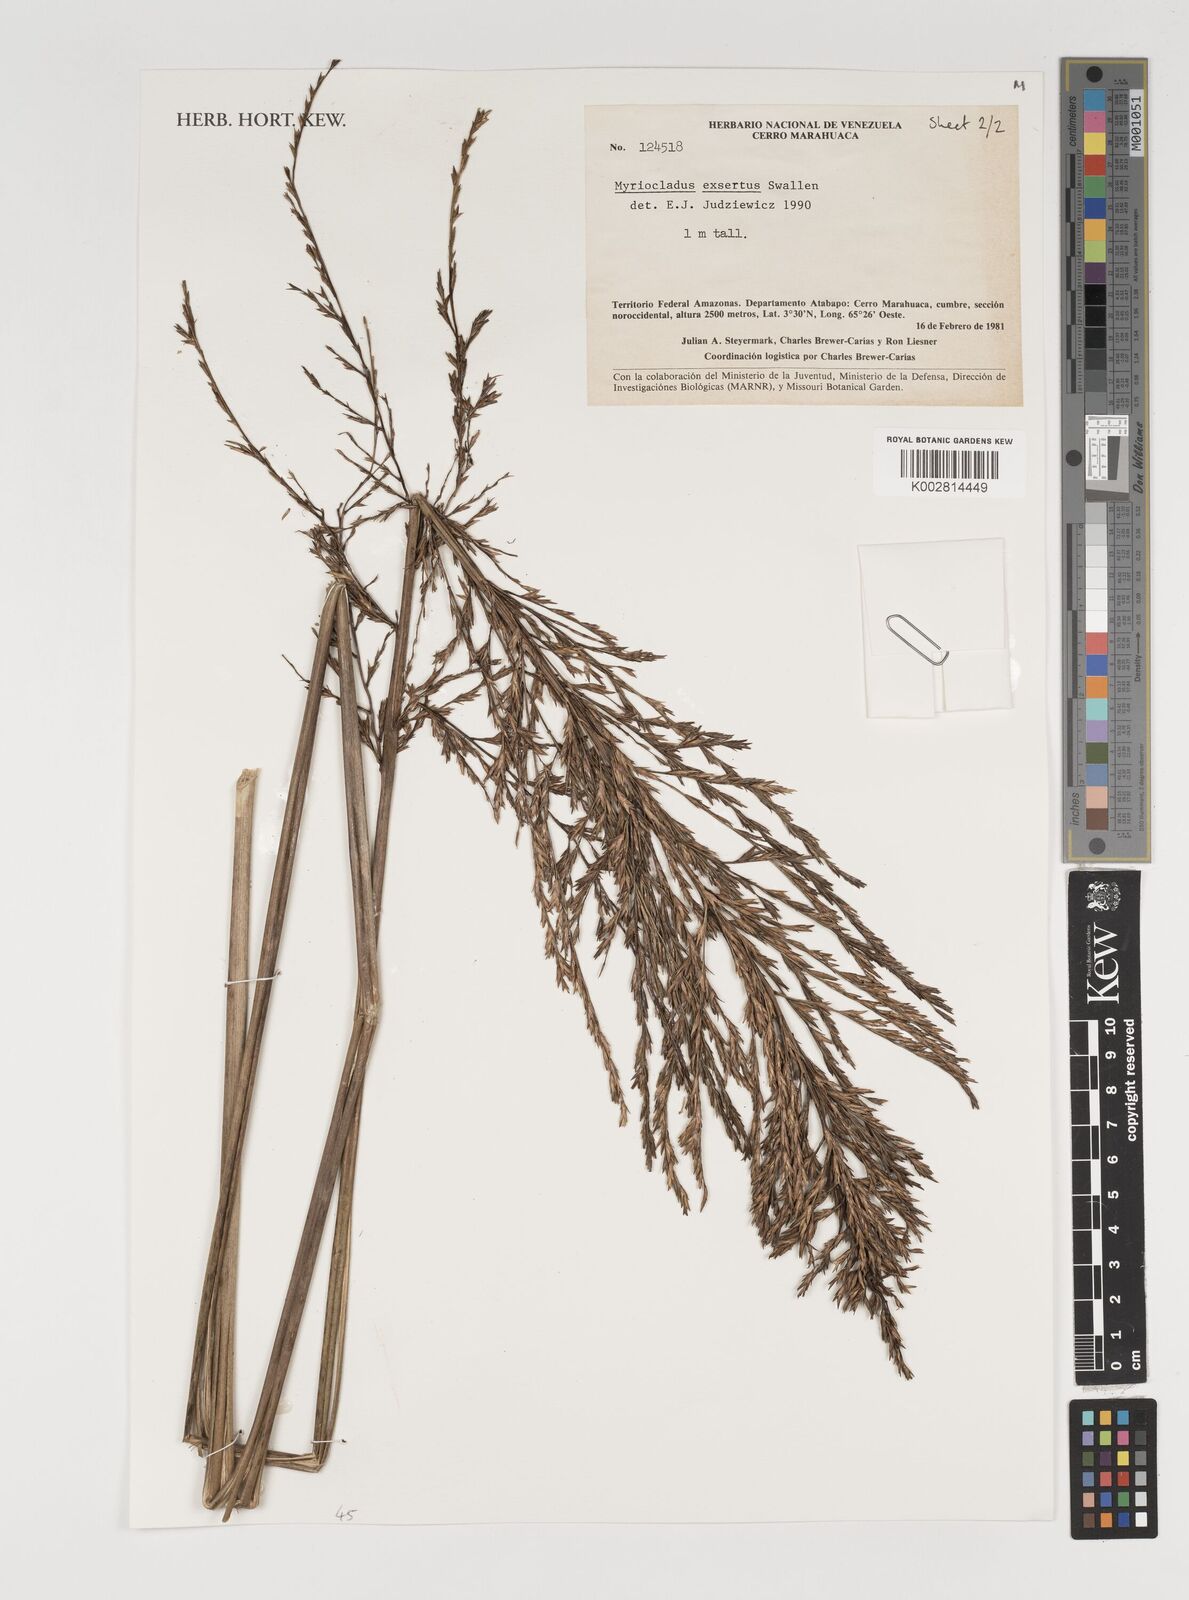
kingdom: Plantae
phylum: Tracheophyta
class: Liliopsida
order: Poales
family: Poaceae
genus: Myriocladus
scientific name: Myriocladus exsertus
